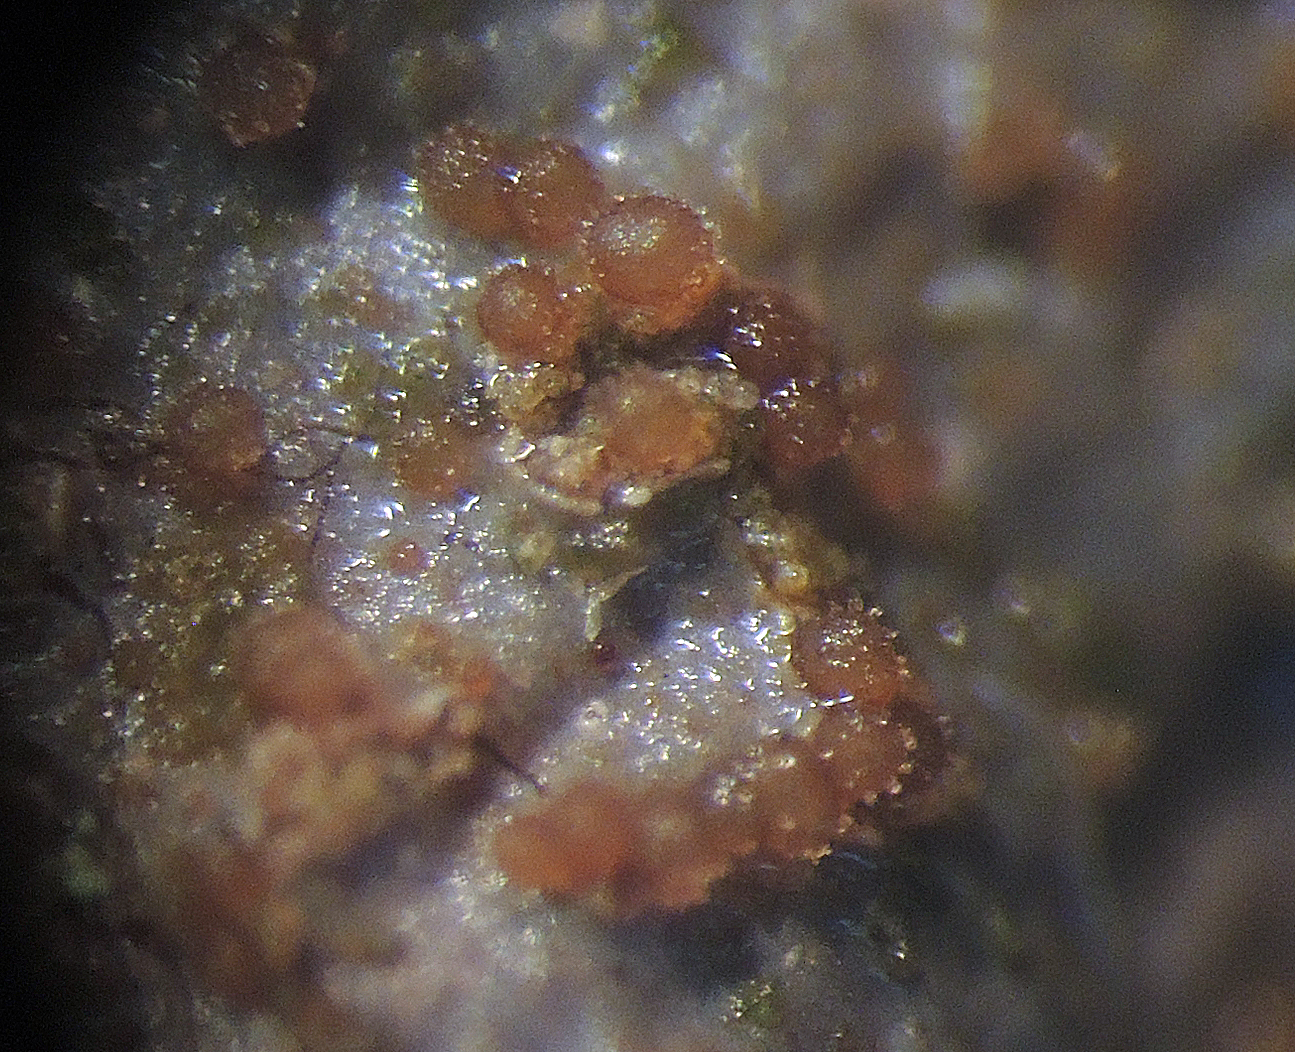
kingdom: Fungi
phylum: Ascomycota
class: Sordariomycetes
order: Hypocreales
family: Bionectriaceae
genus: Nectriopsis
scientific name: Nectriopsis rubefaciens
